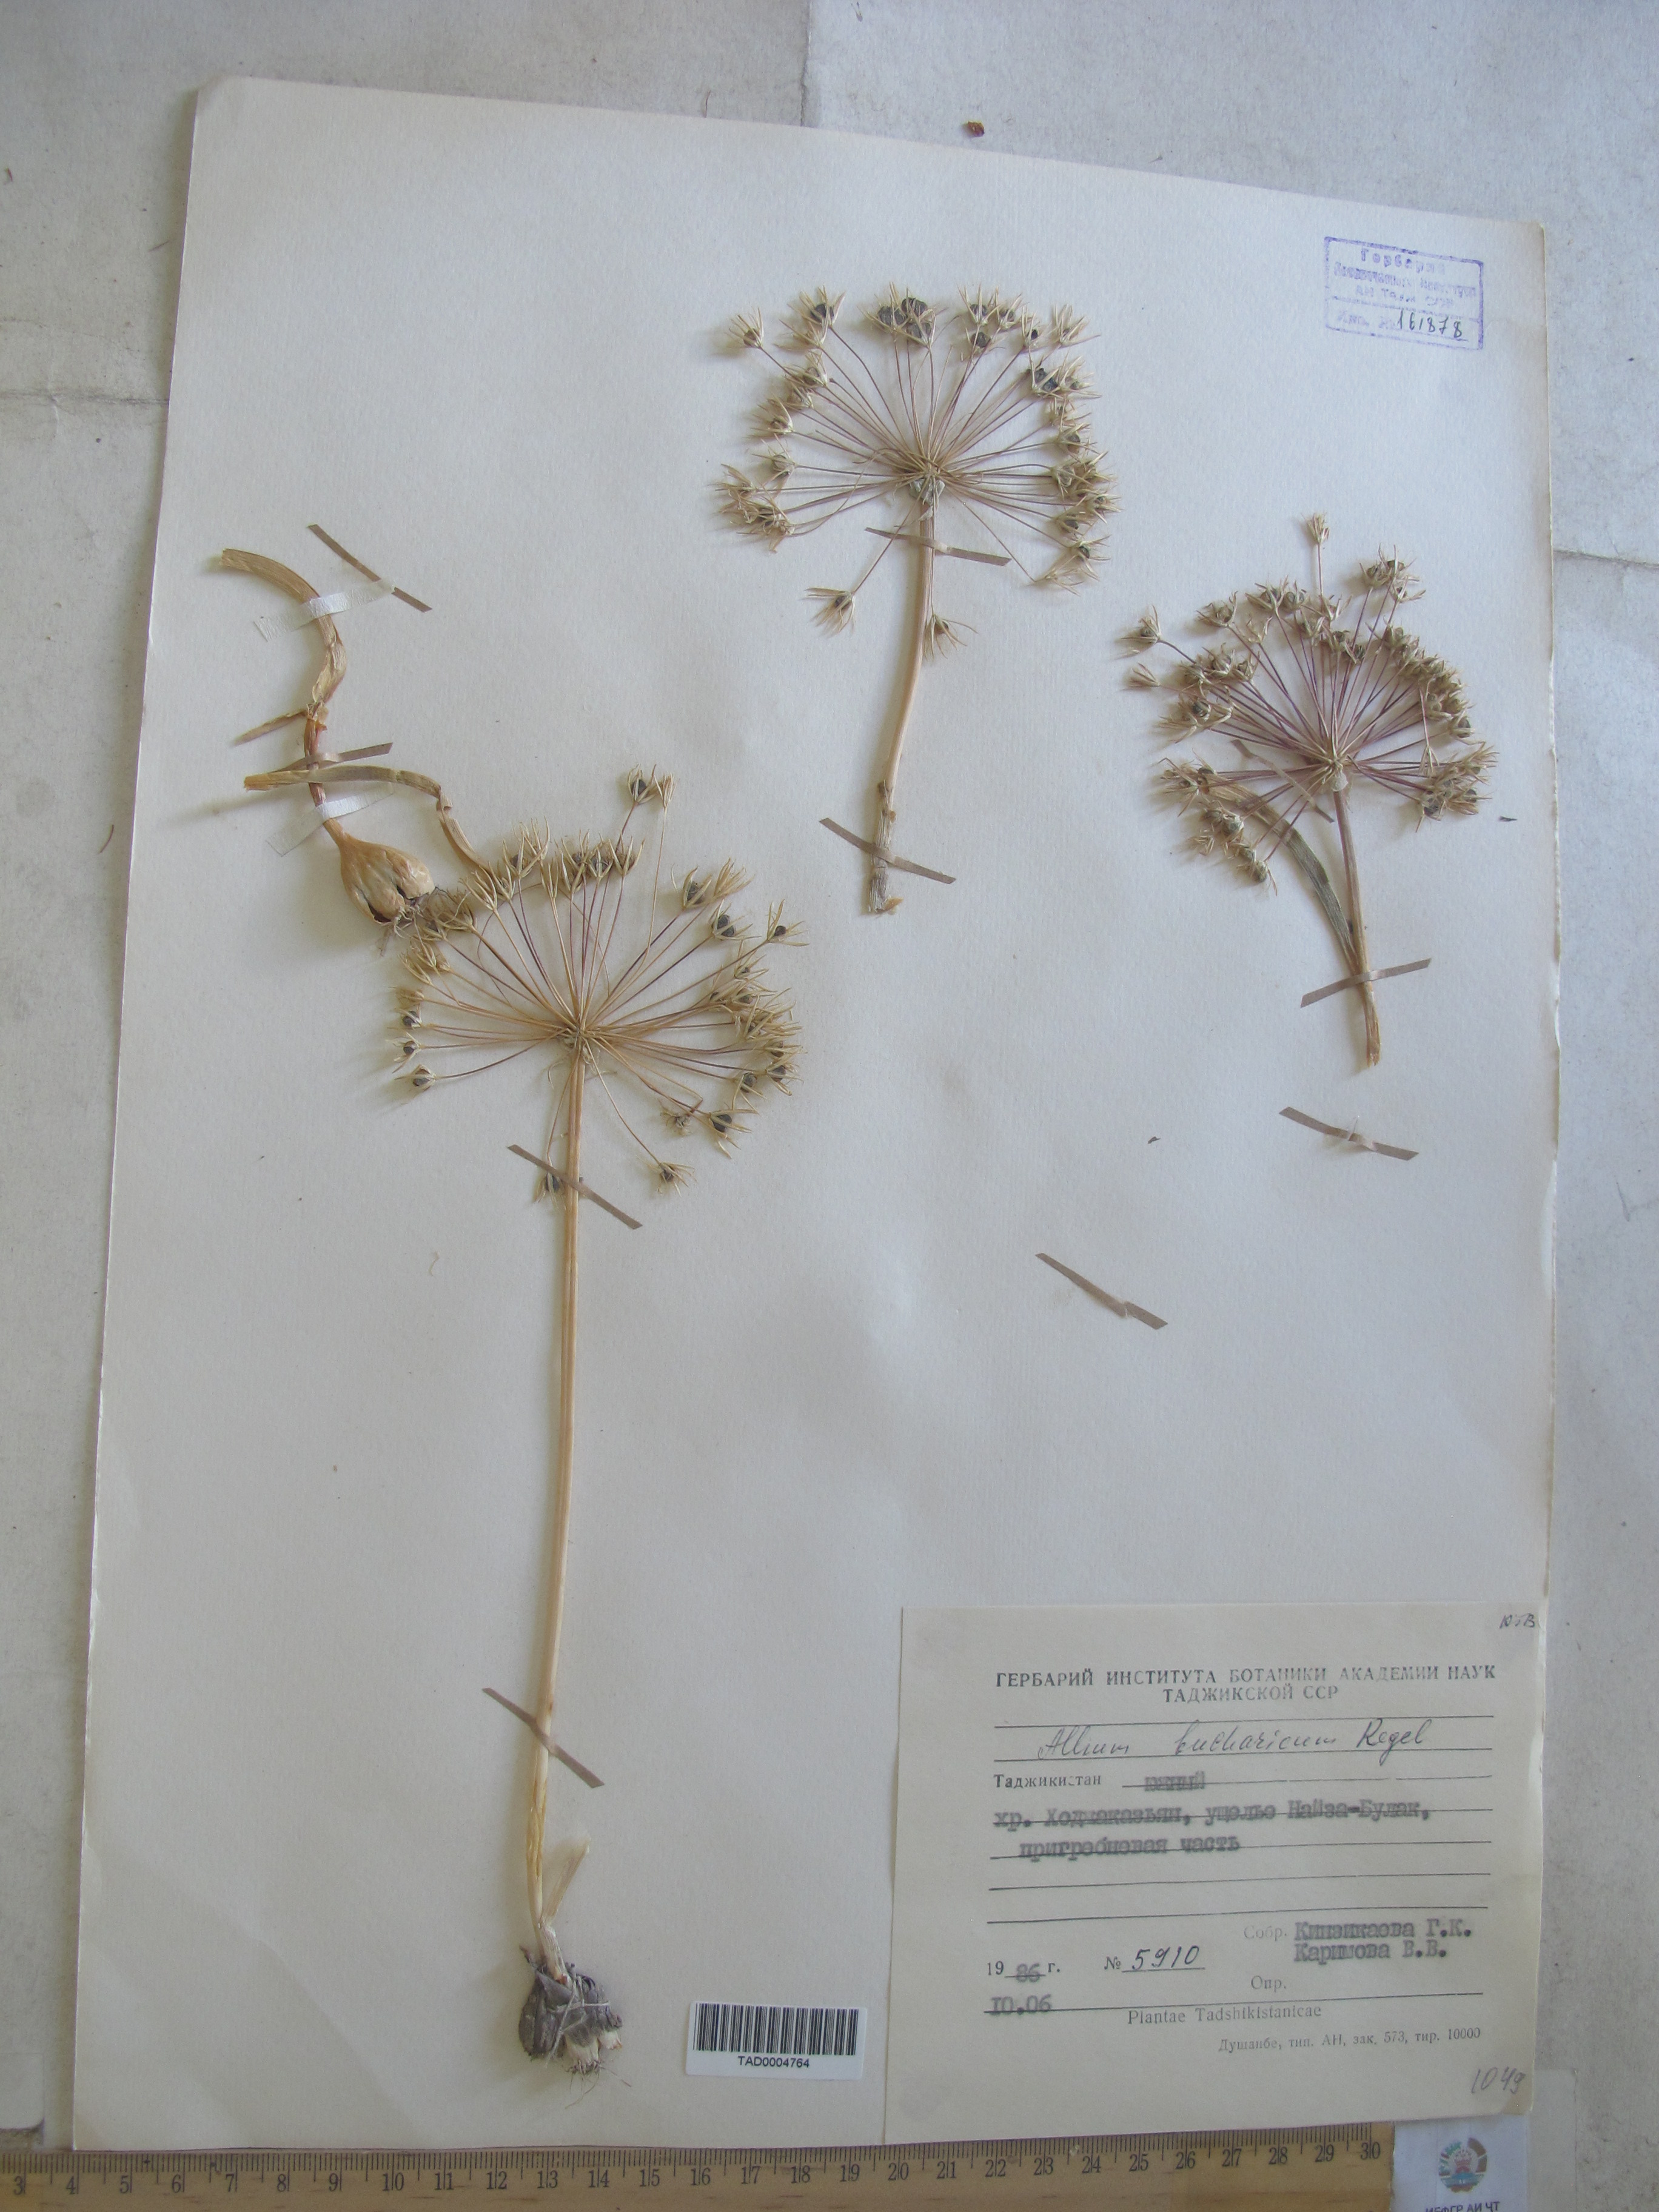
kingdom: Plantae
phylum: Tracheophyta
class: Liliopsida
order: Asparagales
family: Amaryllidaceae
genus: Allium
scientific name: Allium bucharicum
